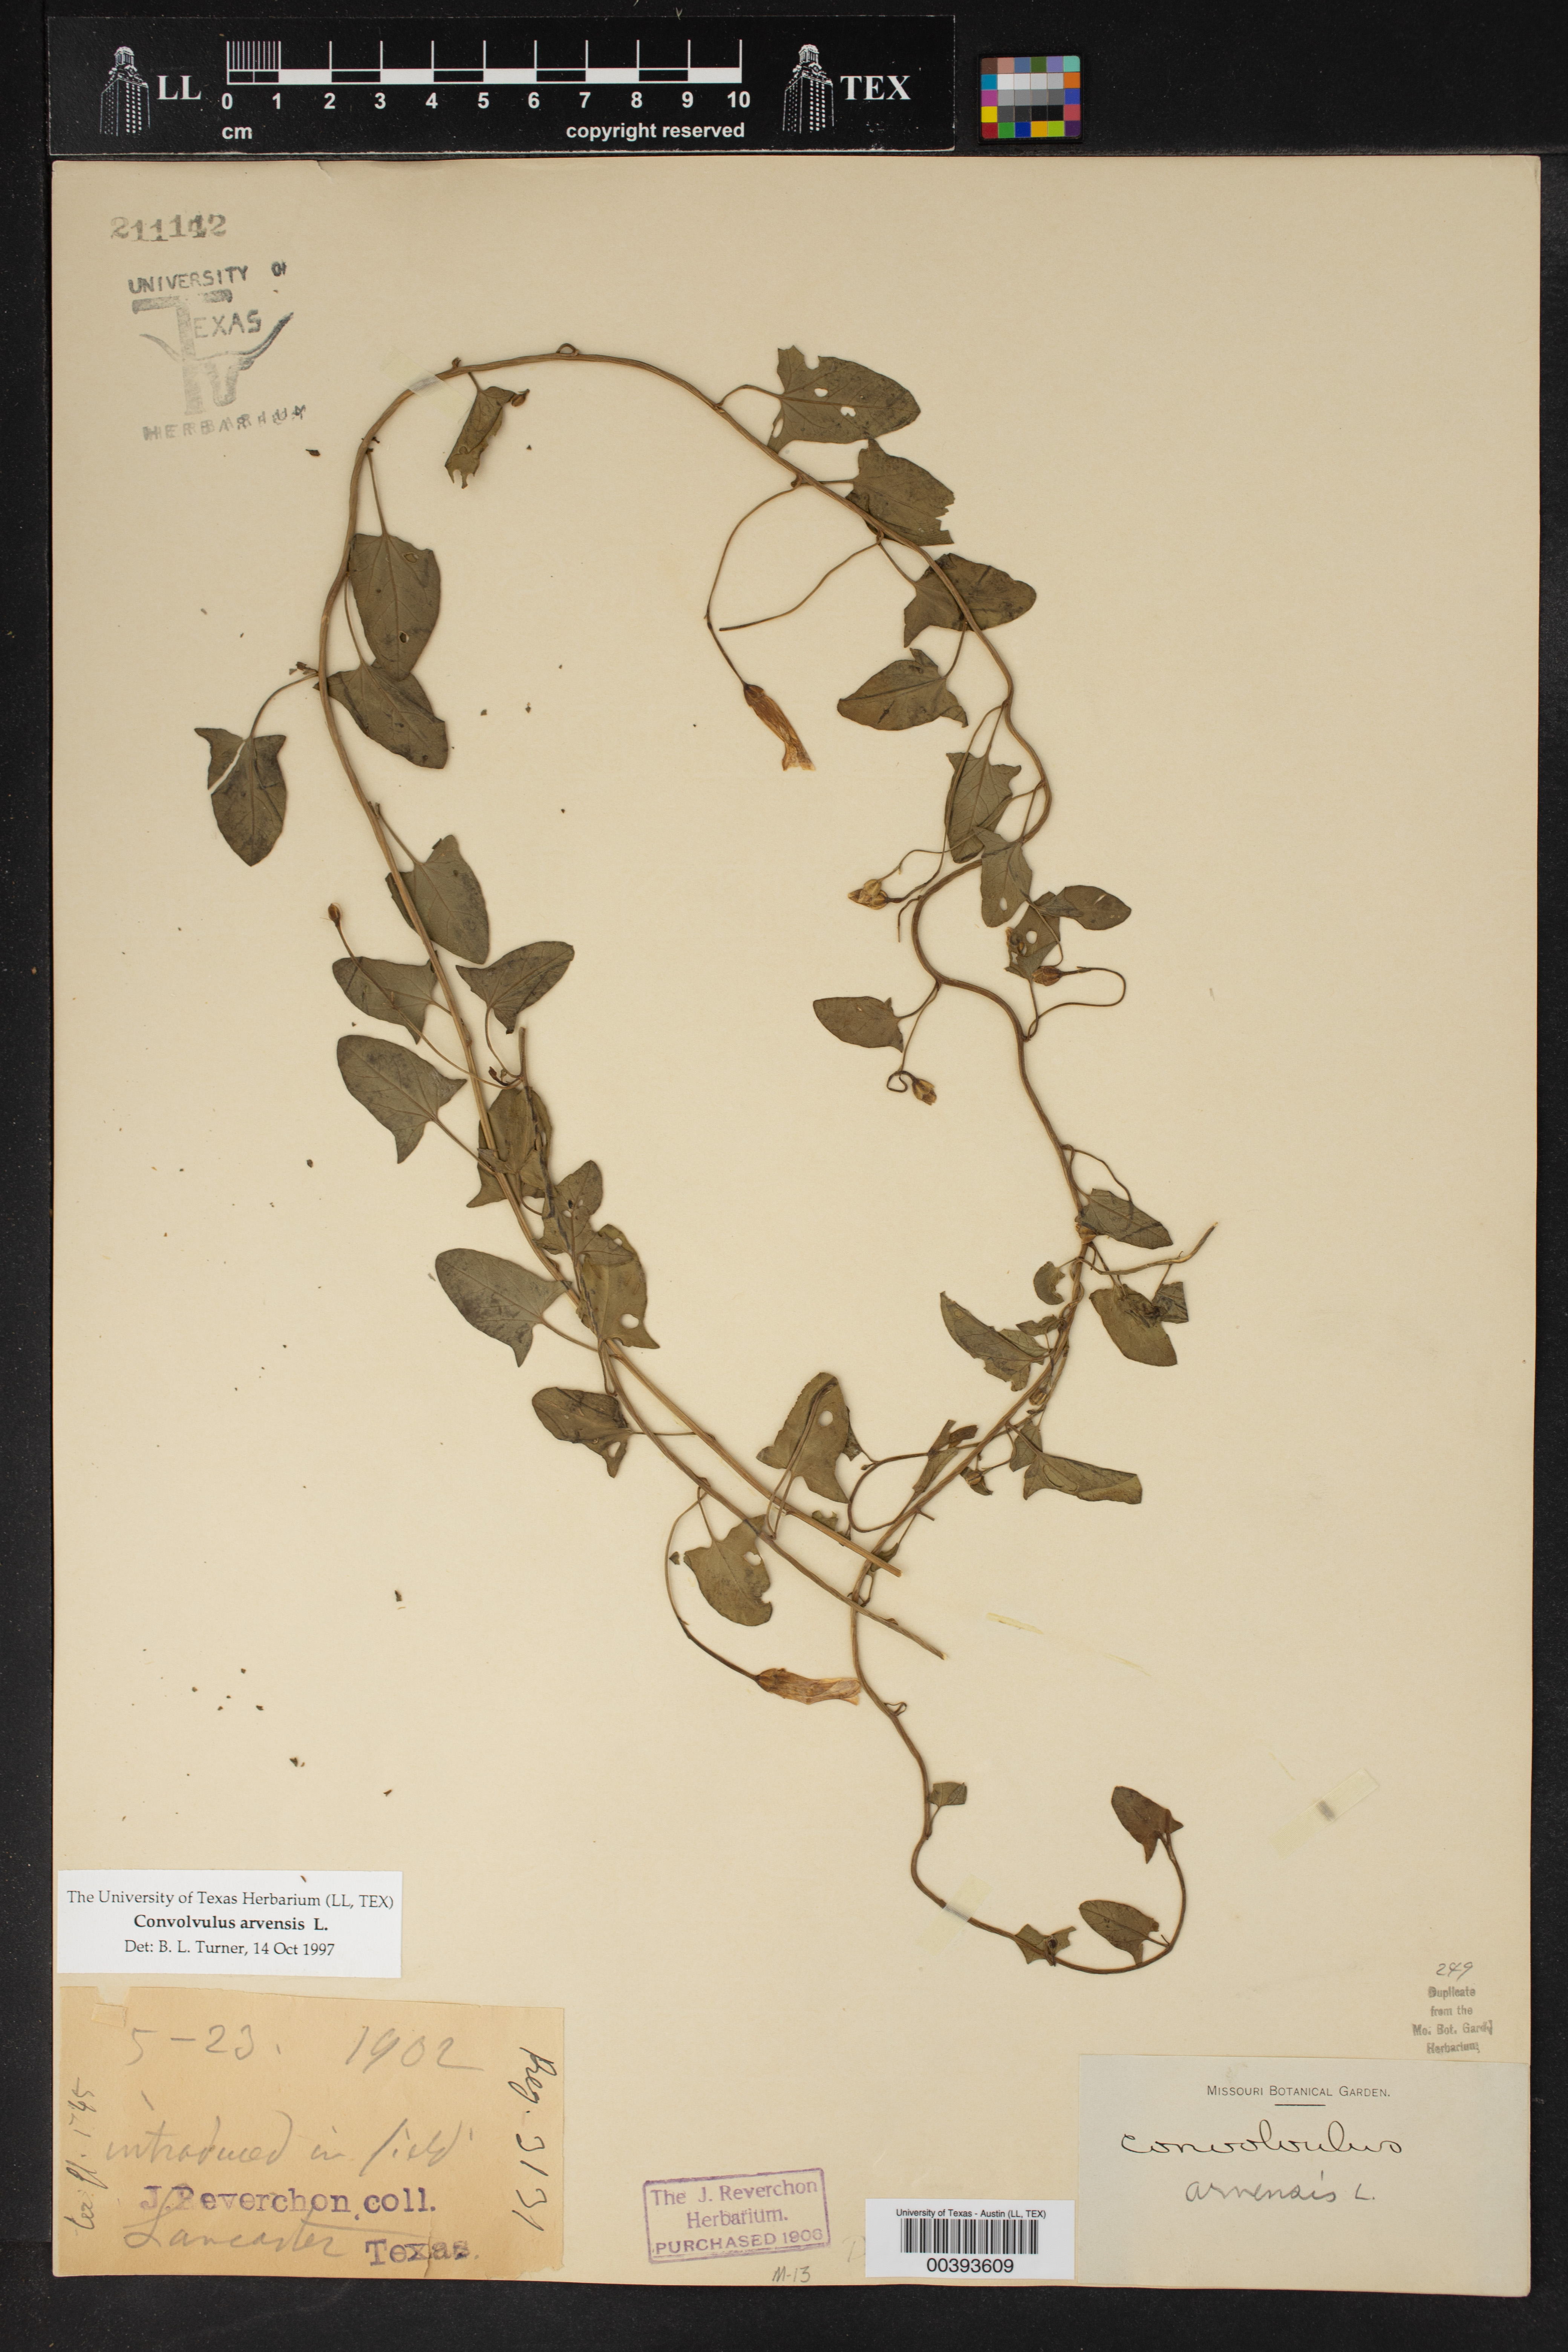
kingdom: Plantae
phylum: Tracheophyta
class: Magnoliopsida
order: Solanales
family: Convolvulaceae
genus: Convolvulus
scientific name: Convolvulus arvensis
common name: Field bindweed
